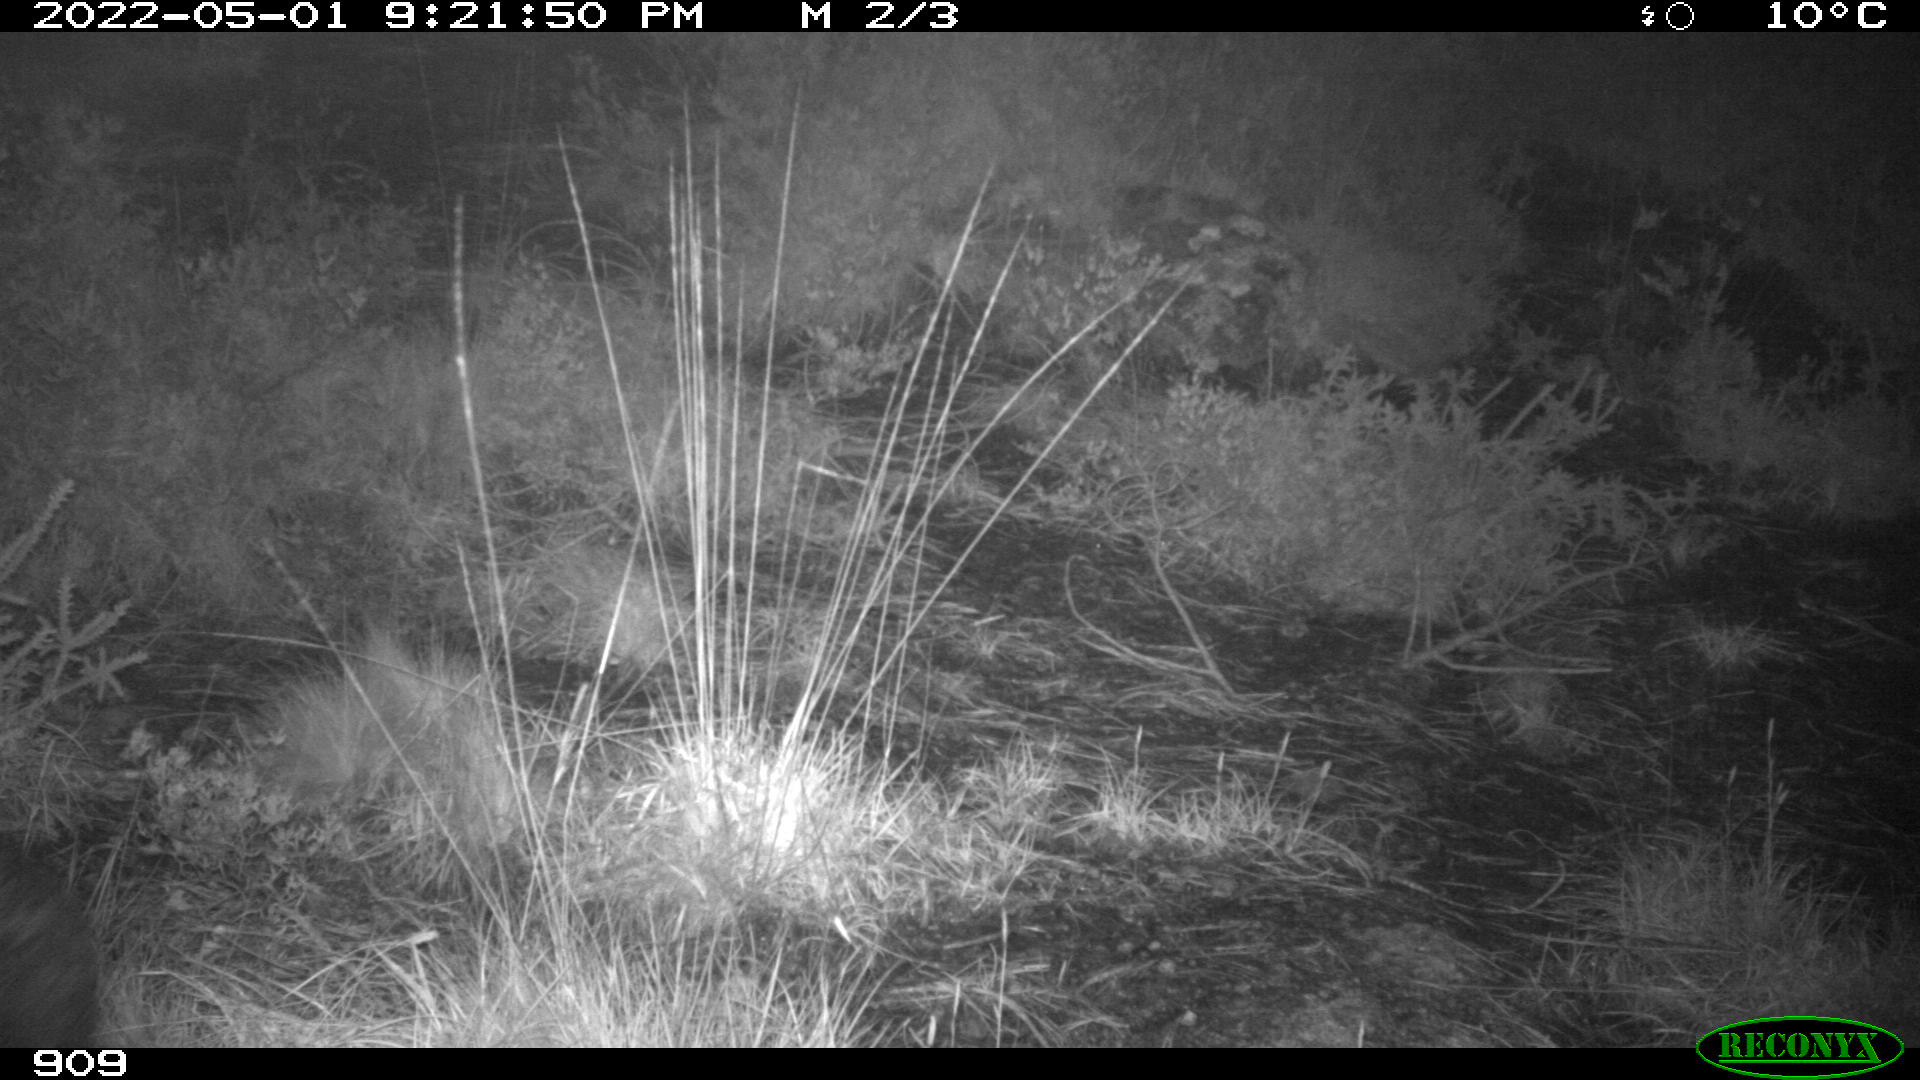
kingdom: Animalia
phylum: Chordata
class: Mammalia
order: Artiodactyla
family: Suidae
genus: Sus
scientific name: Sus scrofa
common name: Wild boar
